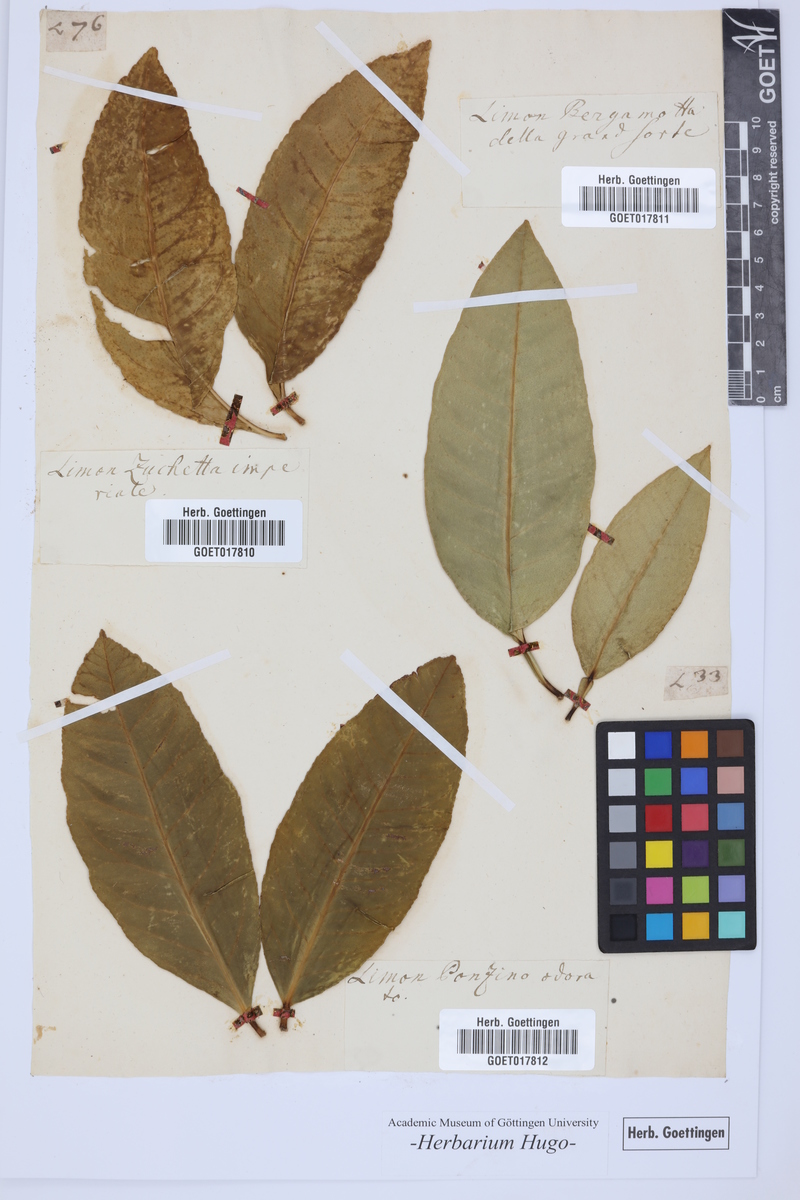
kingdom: Plantae
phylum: Tracheophyta
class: Magnoliopsida
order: Sapindales
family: Rutaceae
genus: Citrus
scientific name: Citrus
